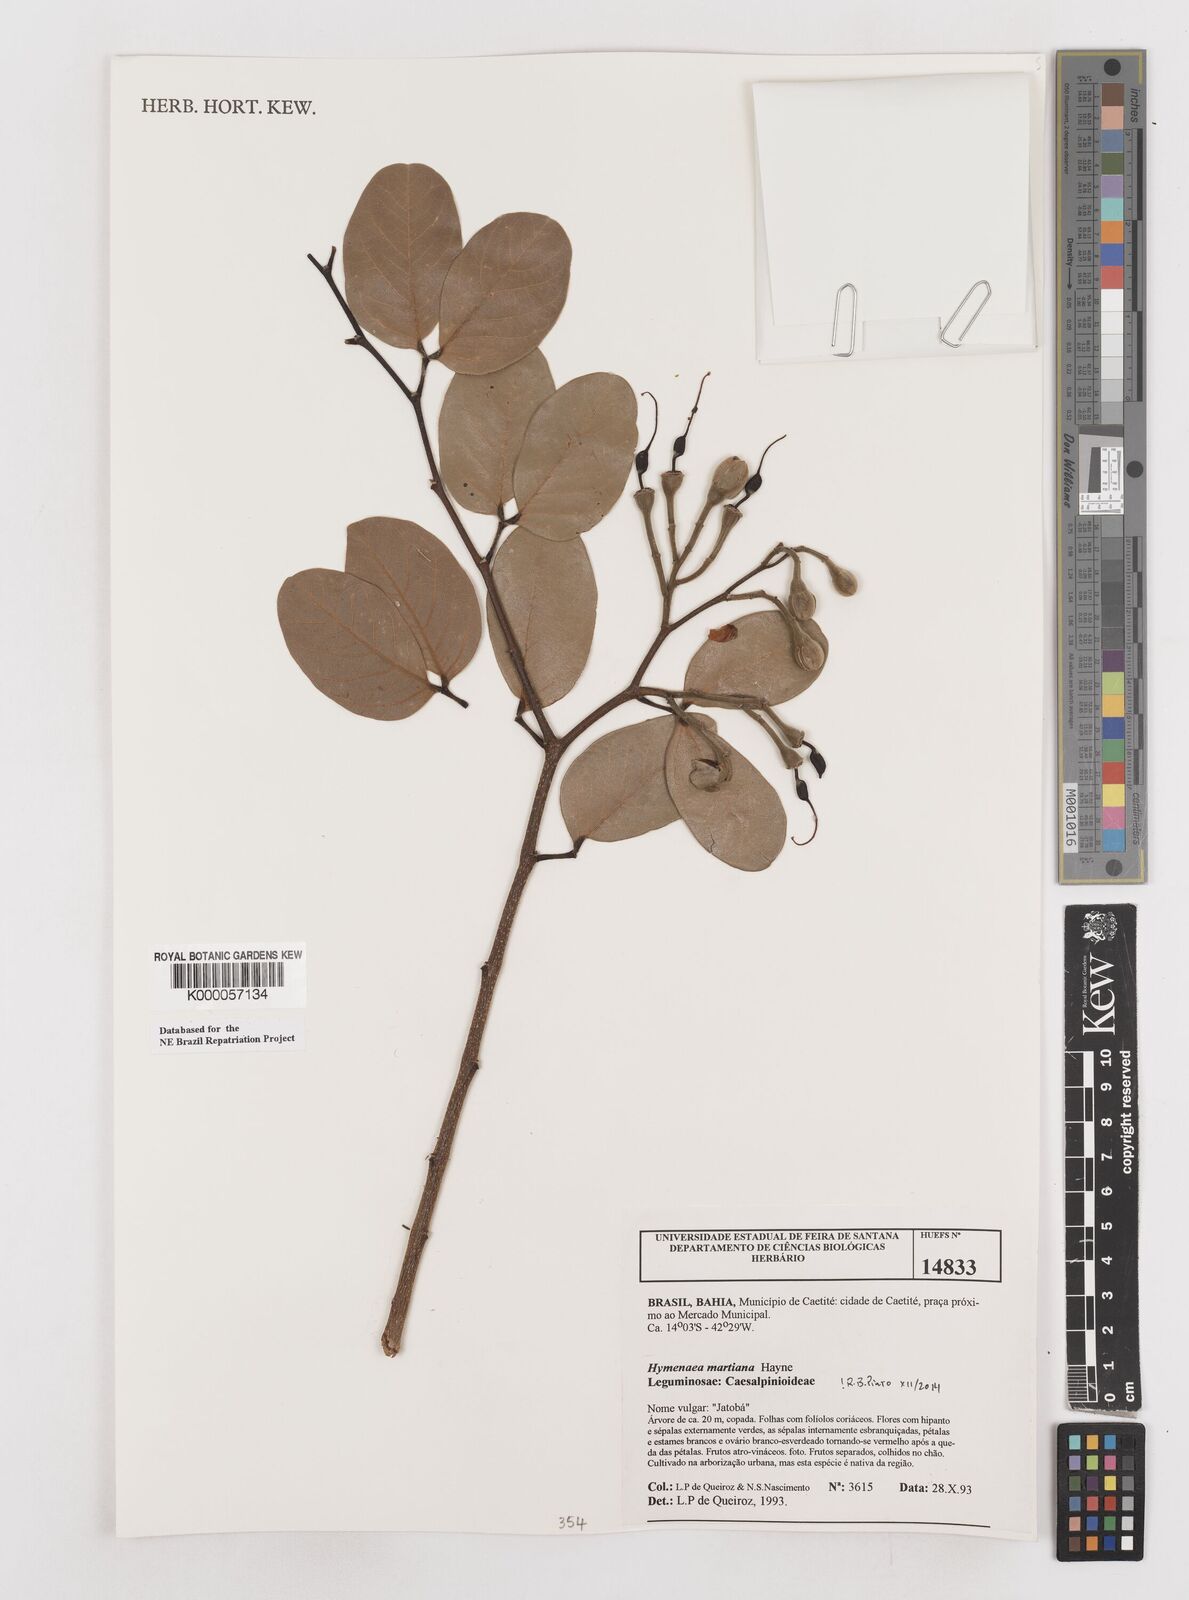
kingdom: Plantae
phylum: Tracheophyta
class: Magnoliopsida
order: Fabales
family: Fabaceae
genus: Hymenaea
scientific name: Hymenaea martiana
